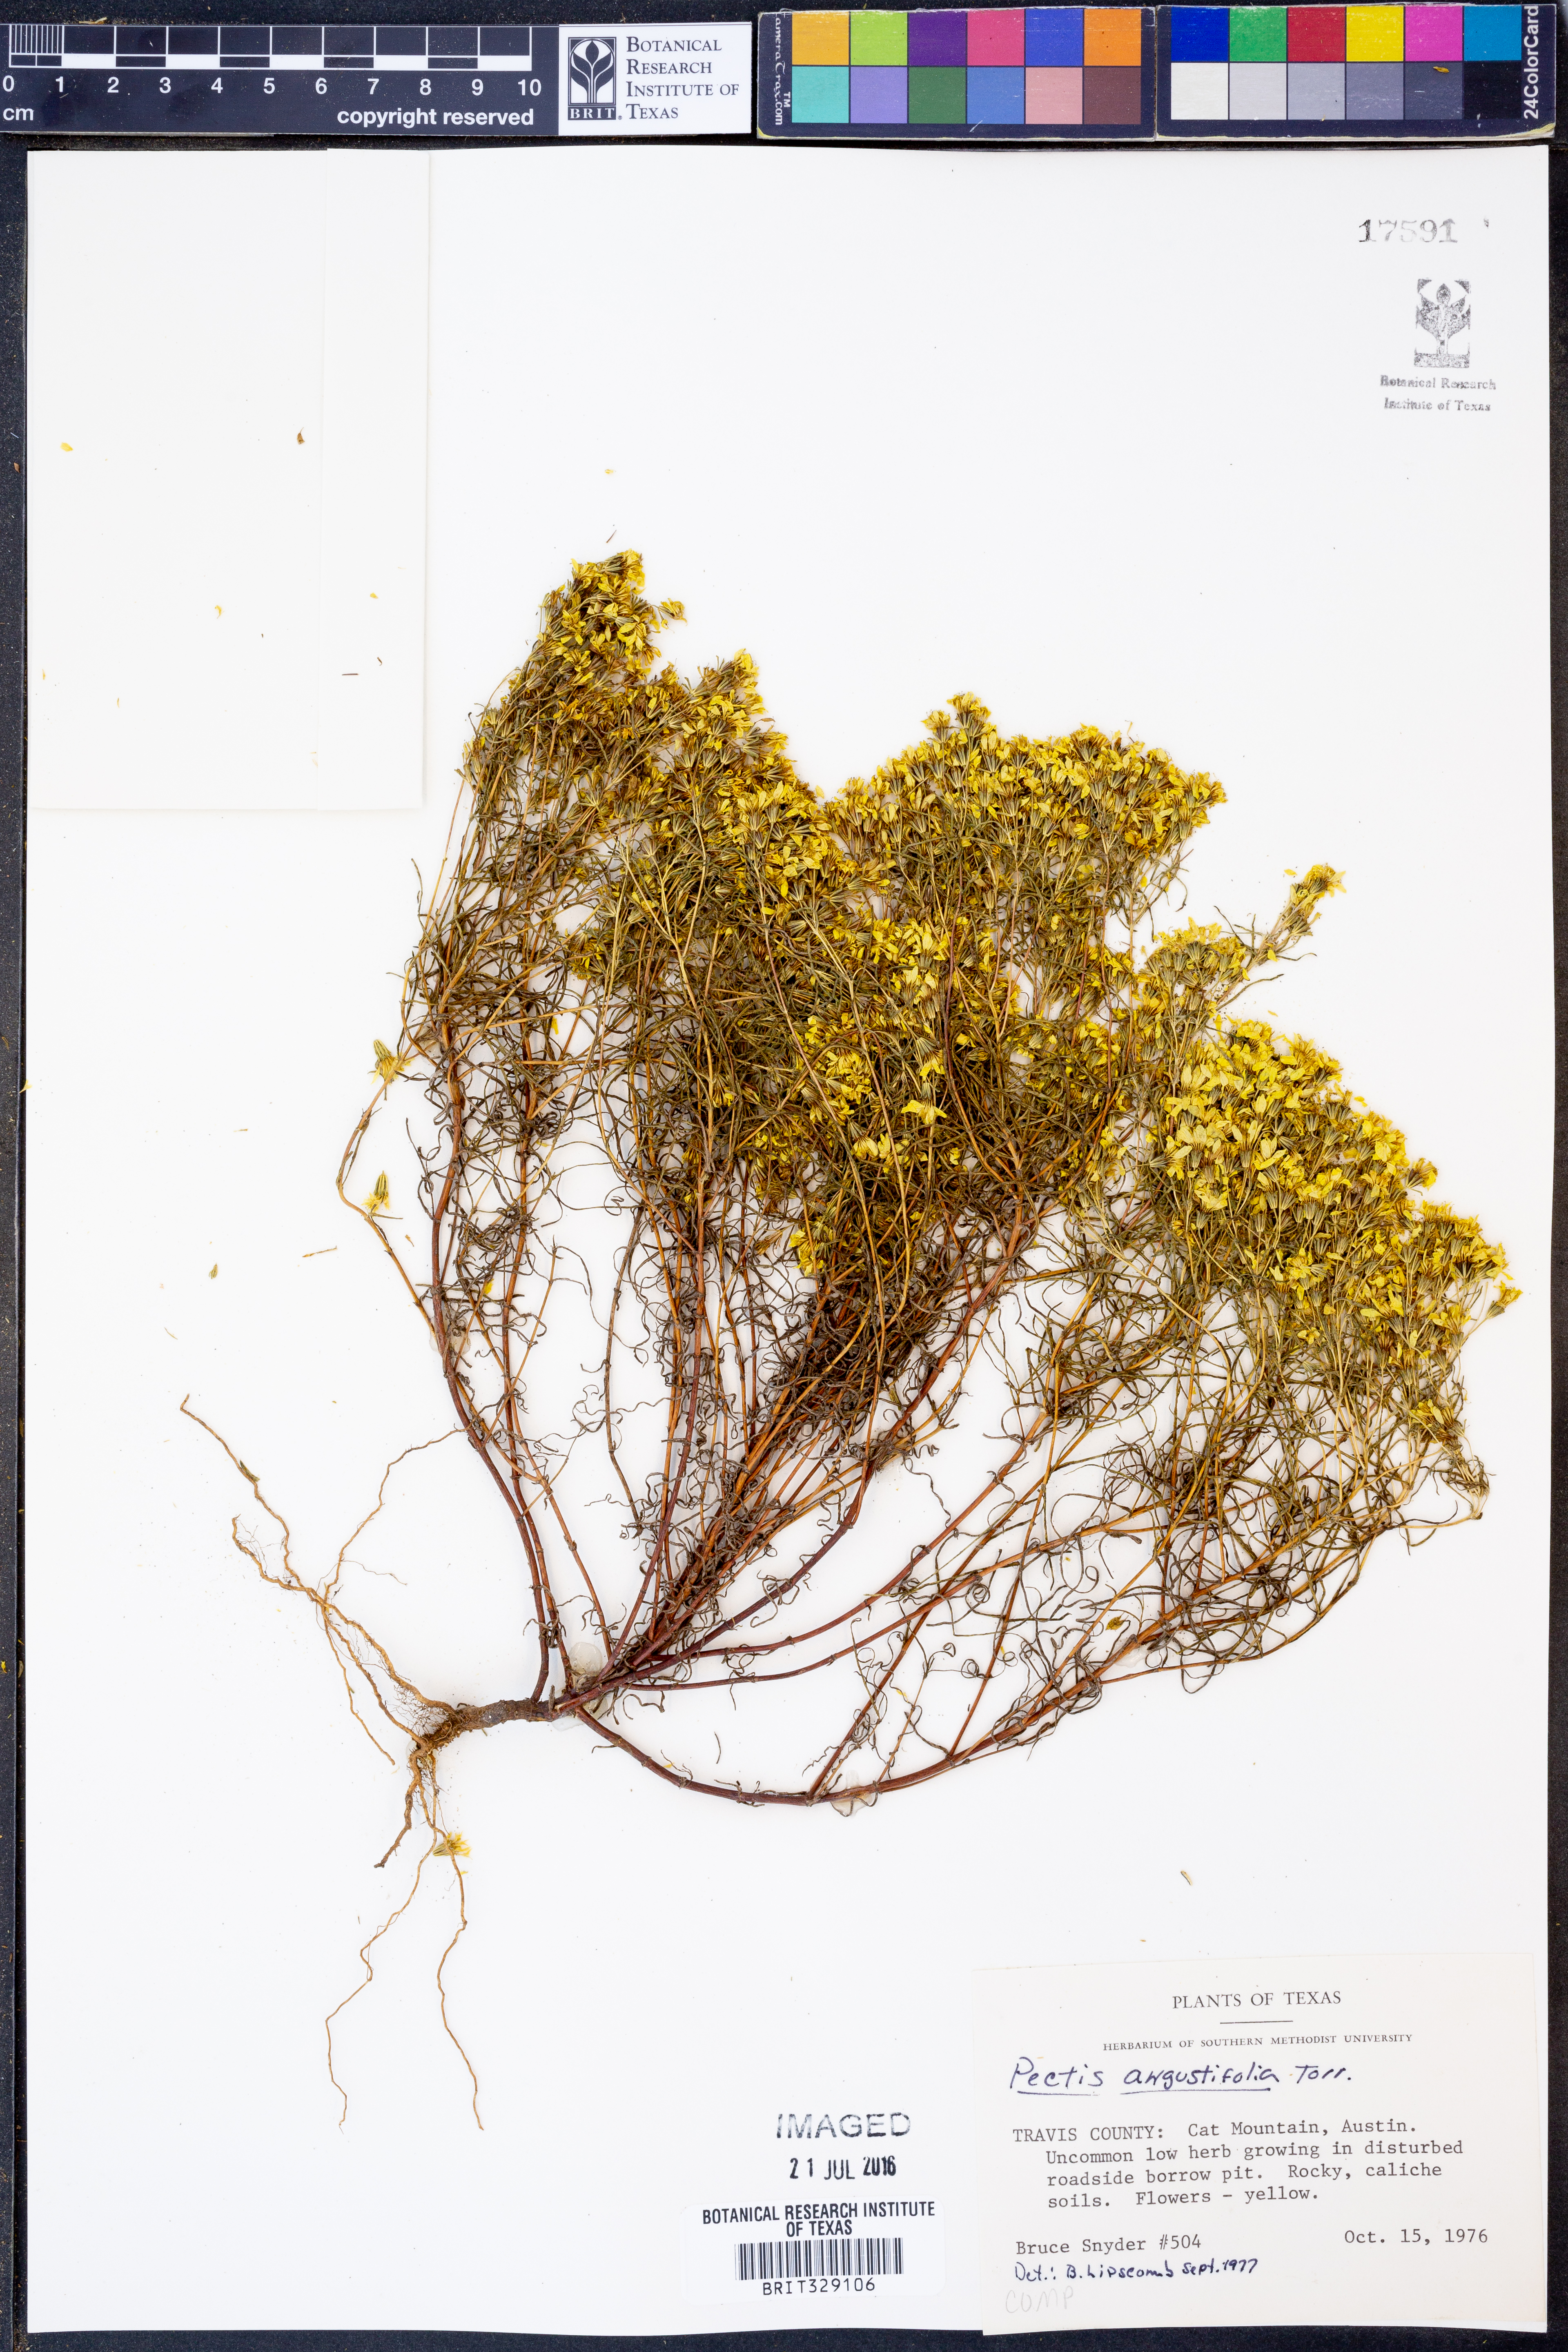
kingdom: Plantae
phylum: Tracheophyta
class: Magnoliopsida
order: Asterales
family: Asteraceae
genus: Pectis
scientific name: Pectis angustifolia
